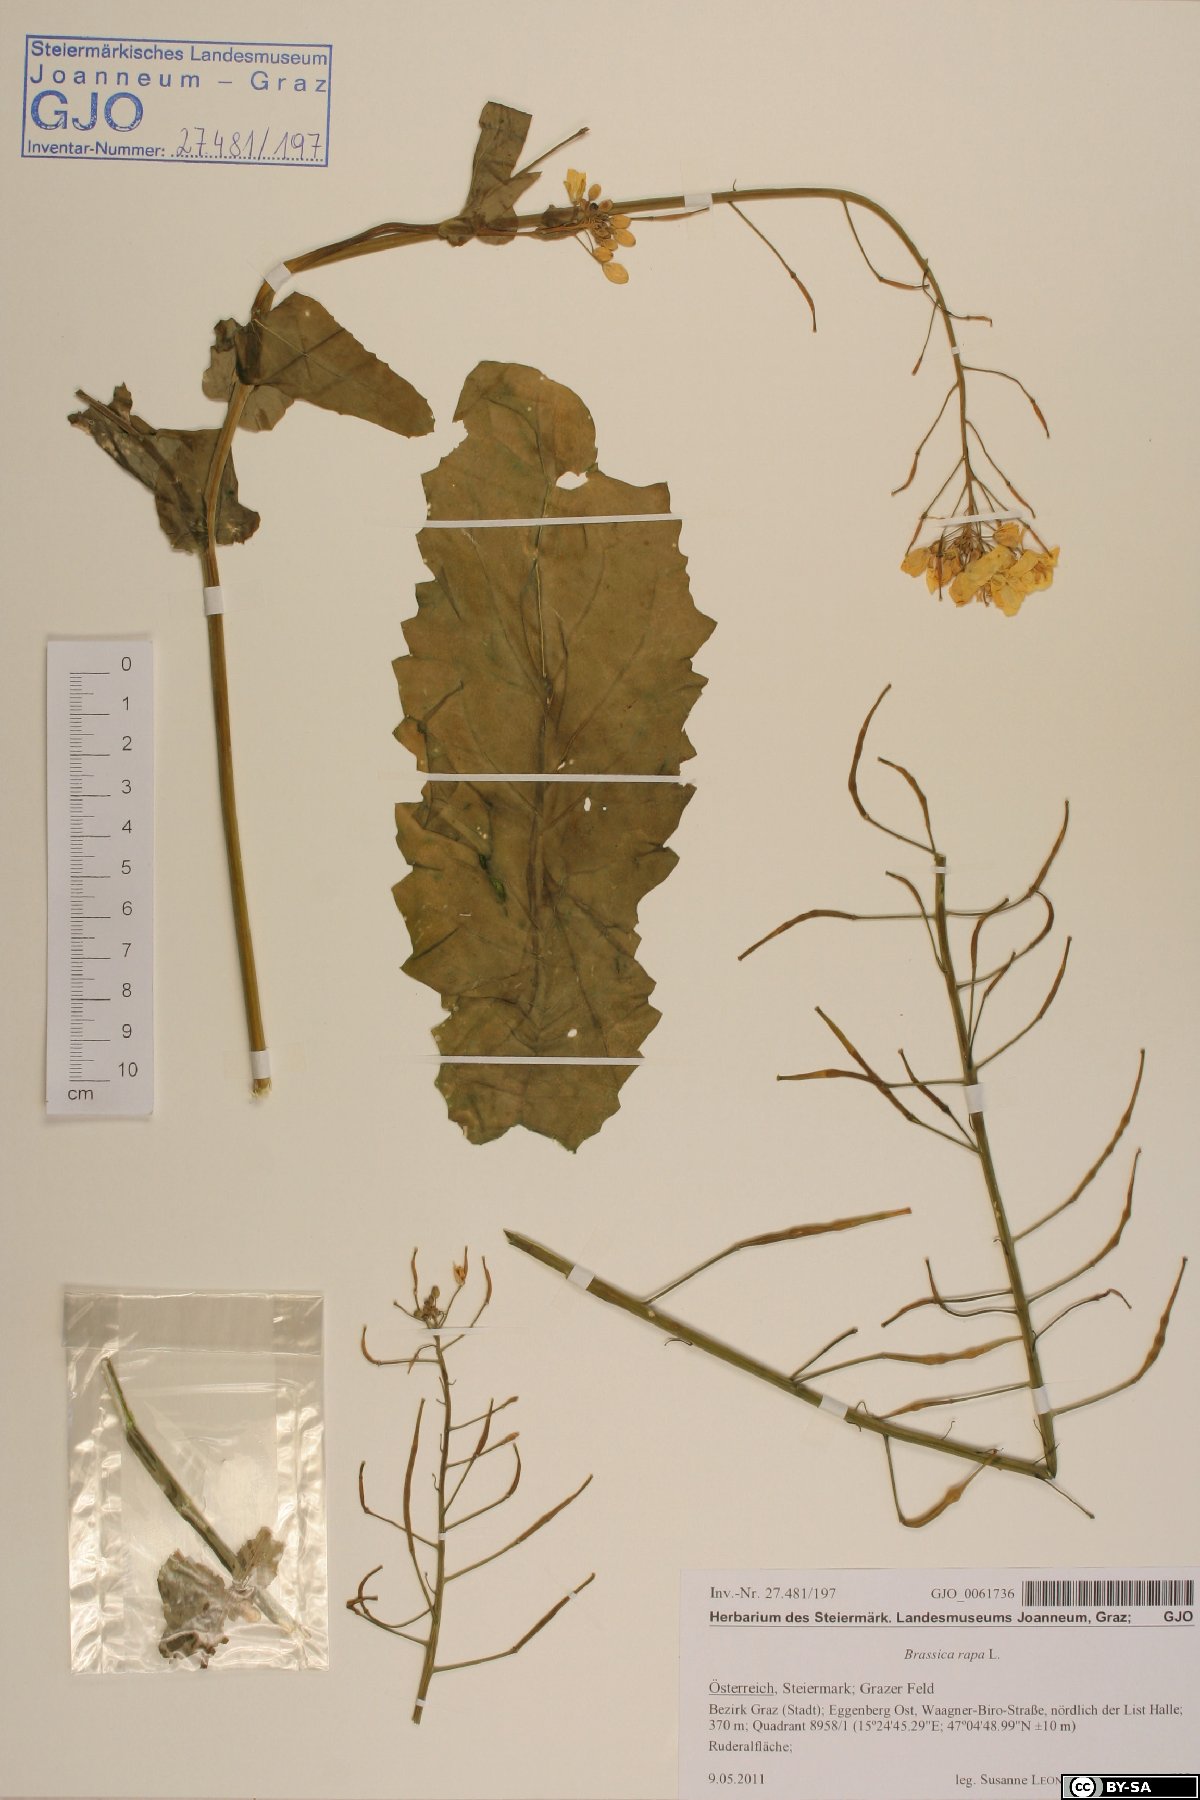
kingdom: Plantae
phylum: Tracheophyta
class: Magnoliopsida
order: Brassicales
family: Brassicaceae
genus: Brassica
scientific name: Brassica rapa
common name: Field mustard
